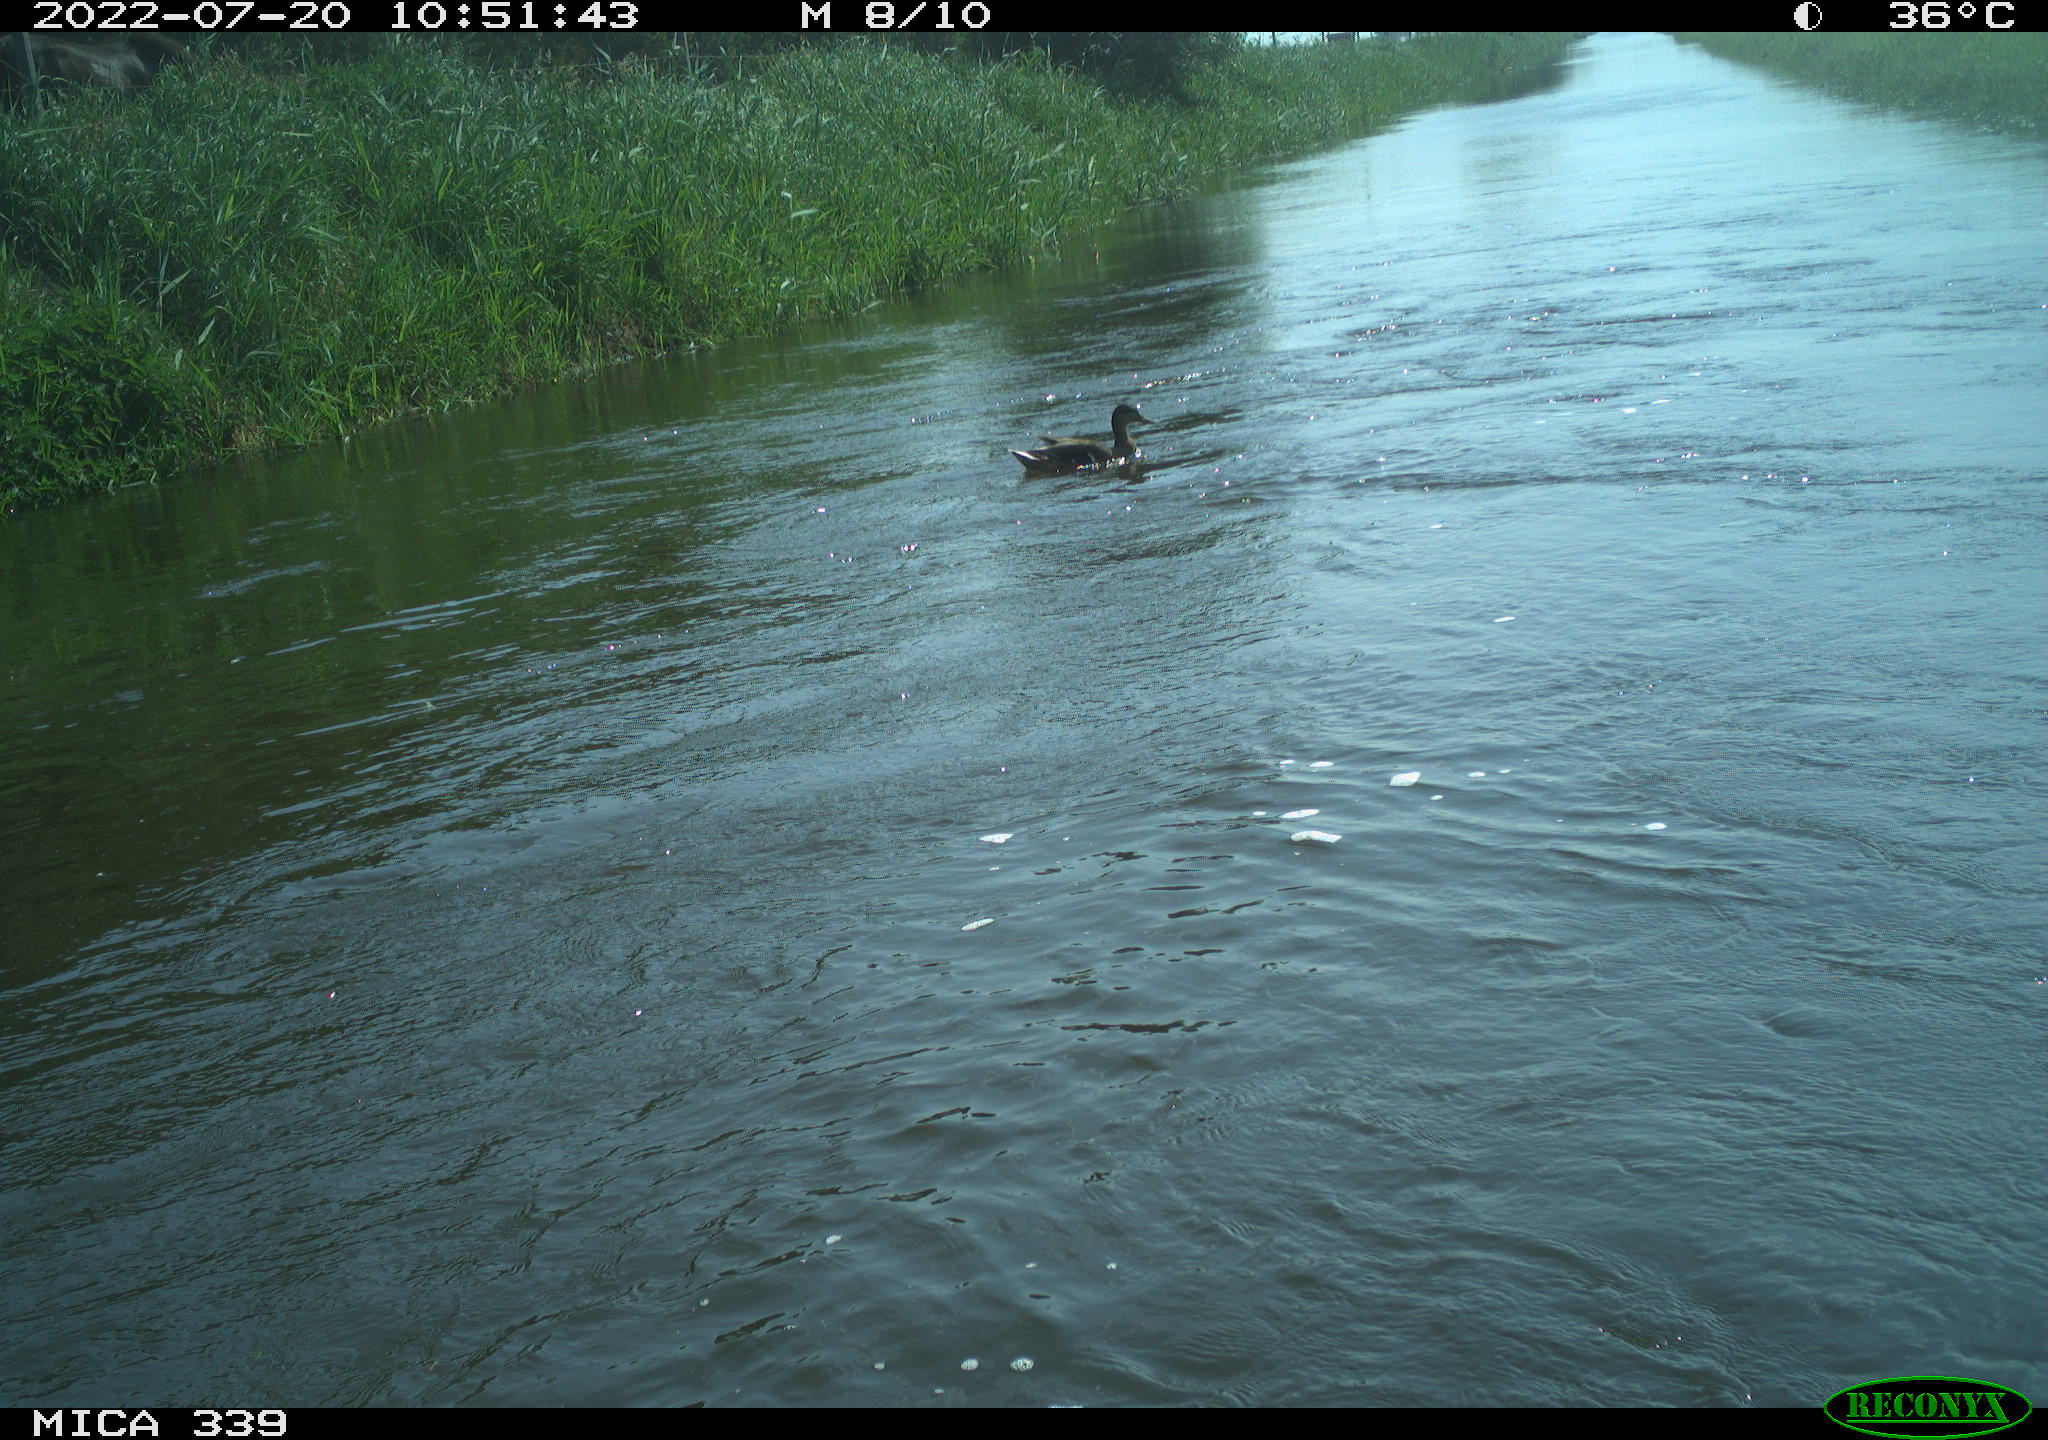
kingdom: Animalia
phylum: Chordata
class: Aves
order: Anseriformes
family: Anatidae
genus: Anas
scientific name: Anas platyrhynchos
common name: Mallard
